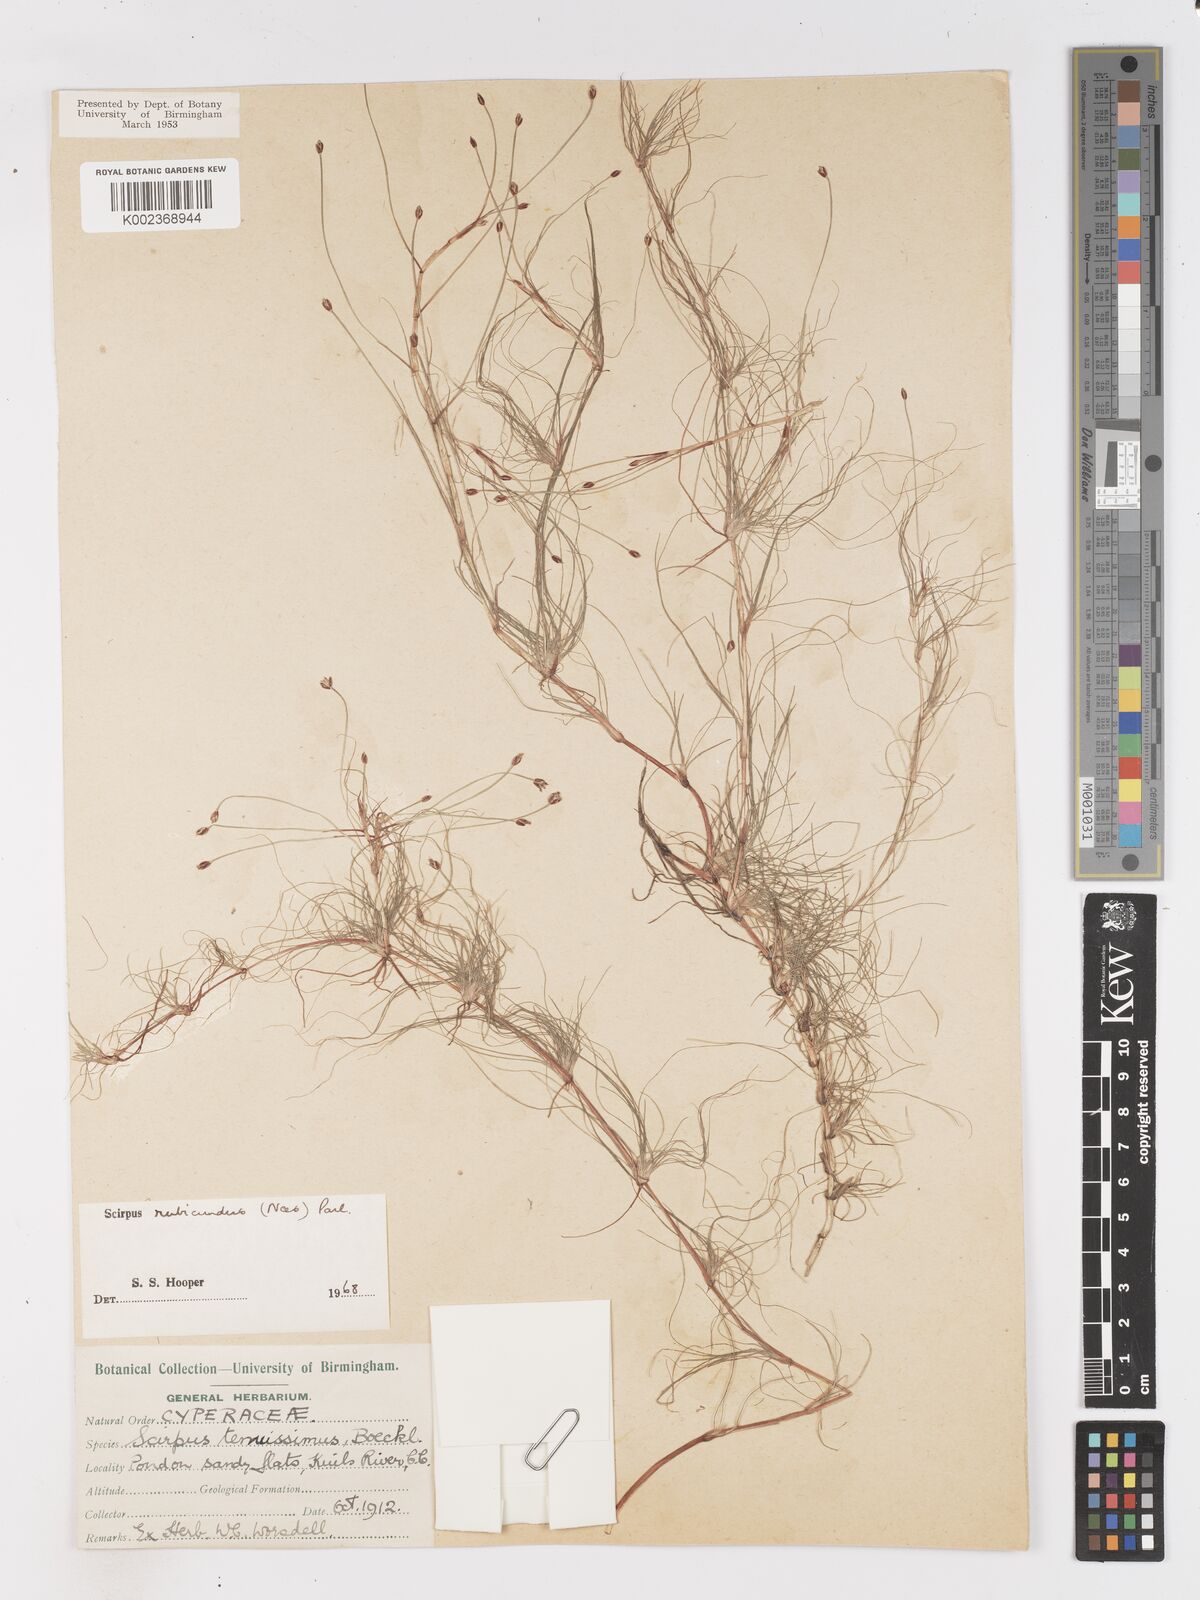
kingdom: Plantae
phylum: Tracheophyta
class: Liliopsida
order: Poales
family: Cyperaceae
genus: Isolepis
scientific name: Isolepis rubicunda
